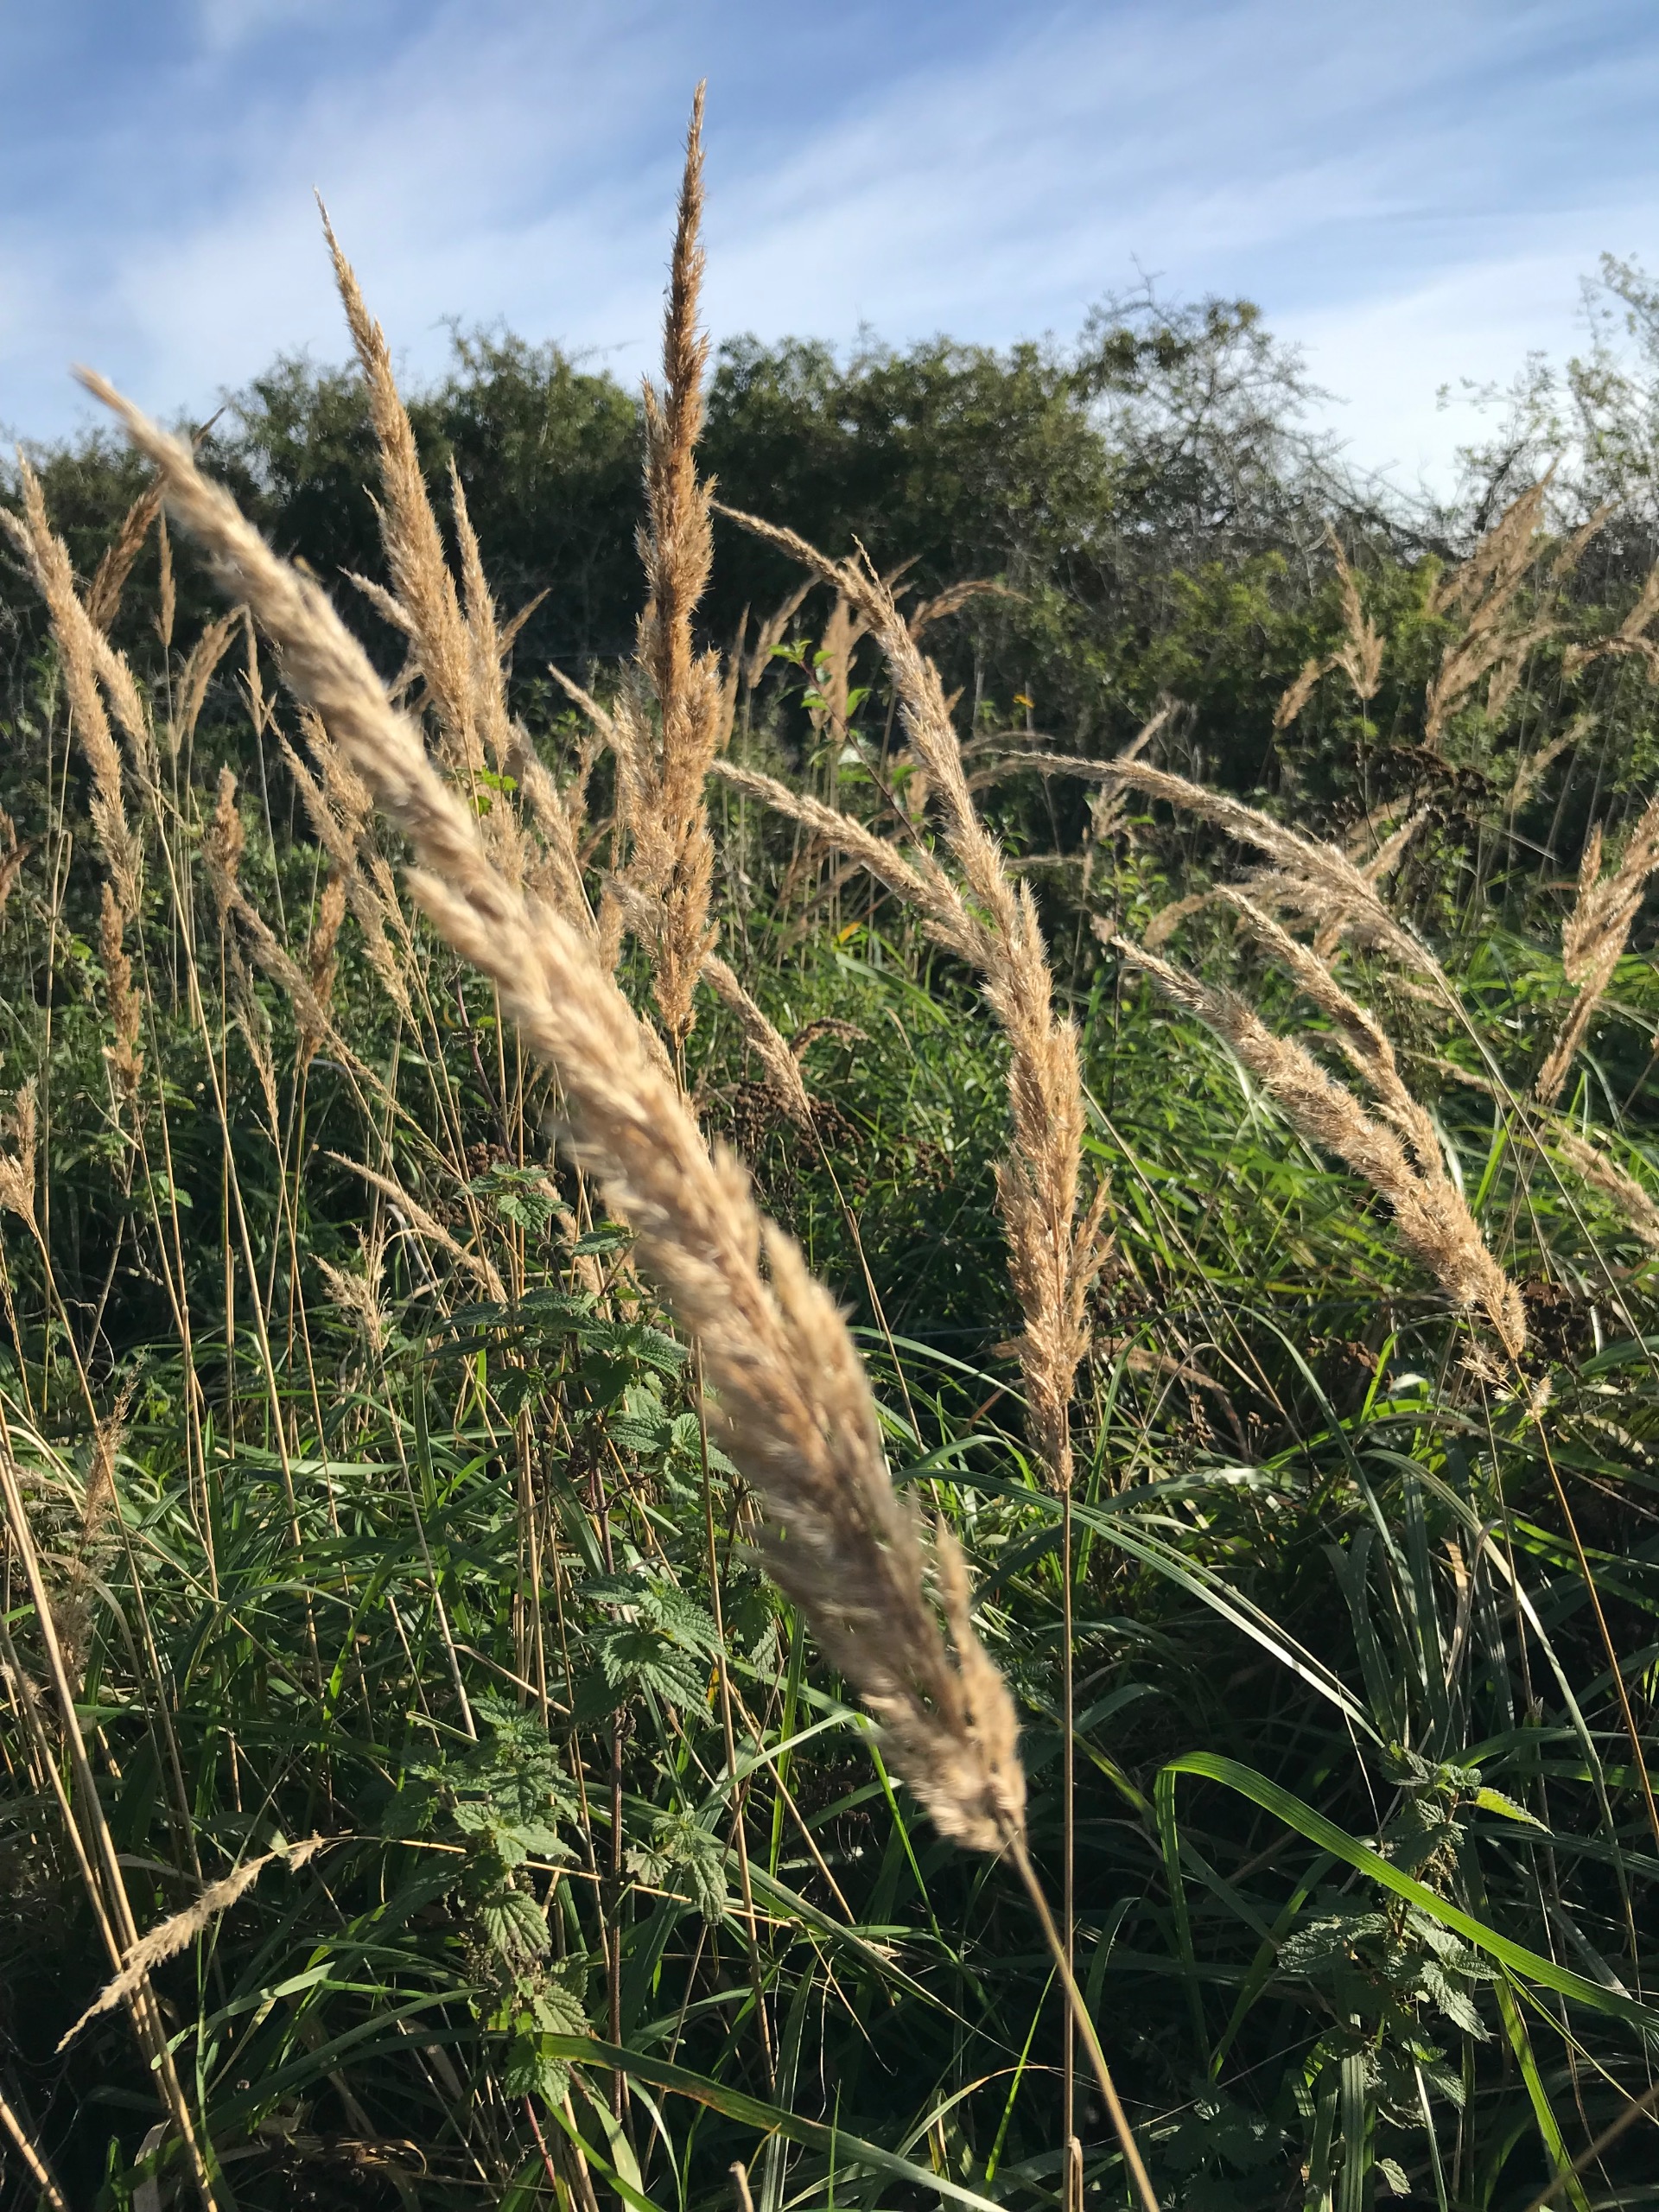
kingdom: Plantae
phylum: Tracheophyta
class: Liliopsida
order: Poales
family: Poaceae
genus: Calamagrostis
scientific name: Calamagrostis epigejos
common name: Bjerg-rørhvene
